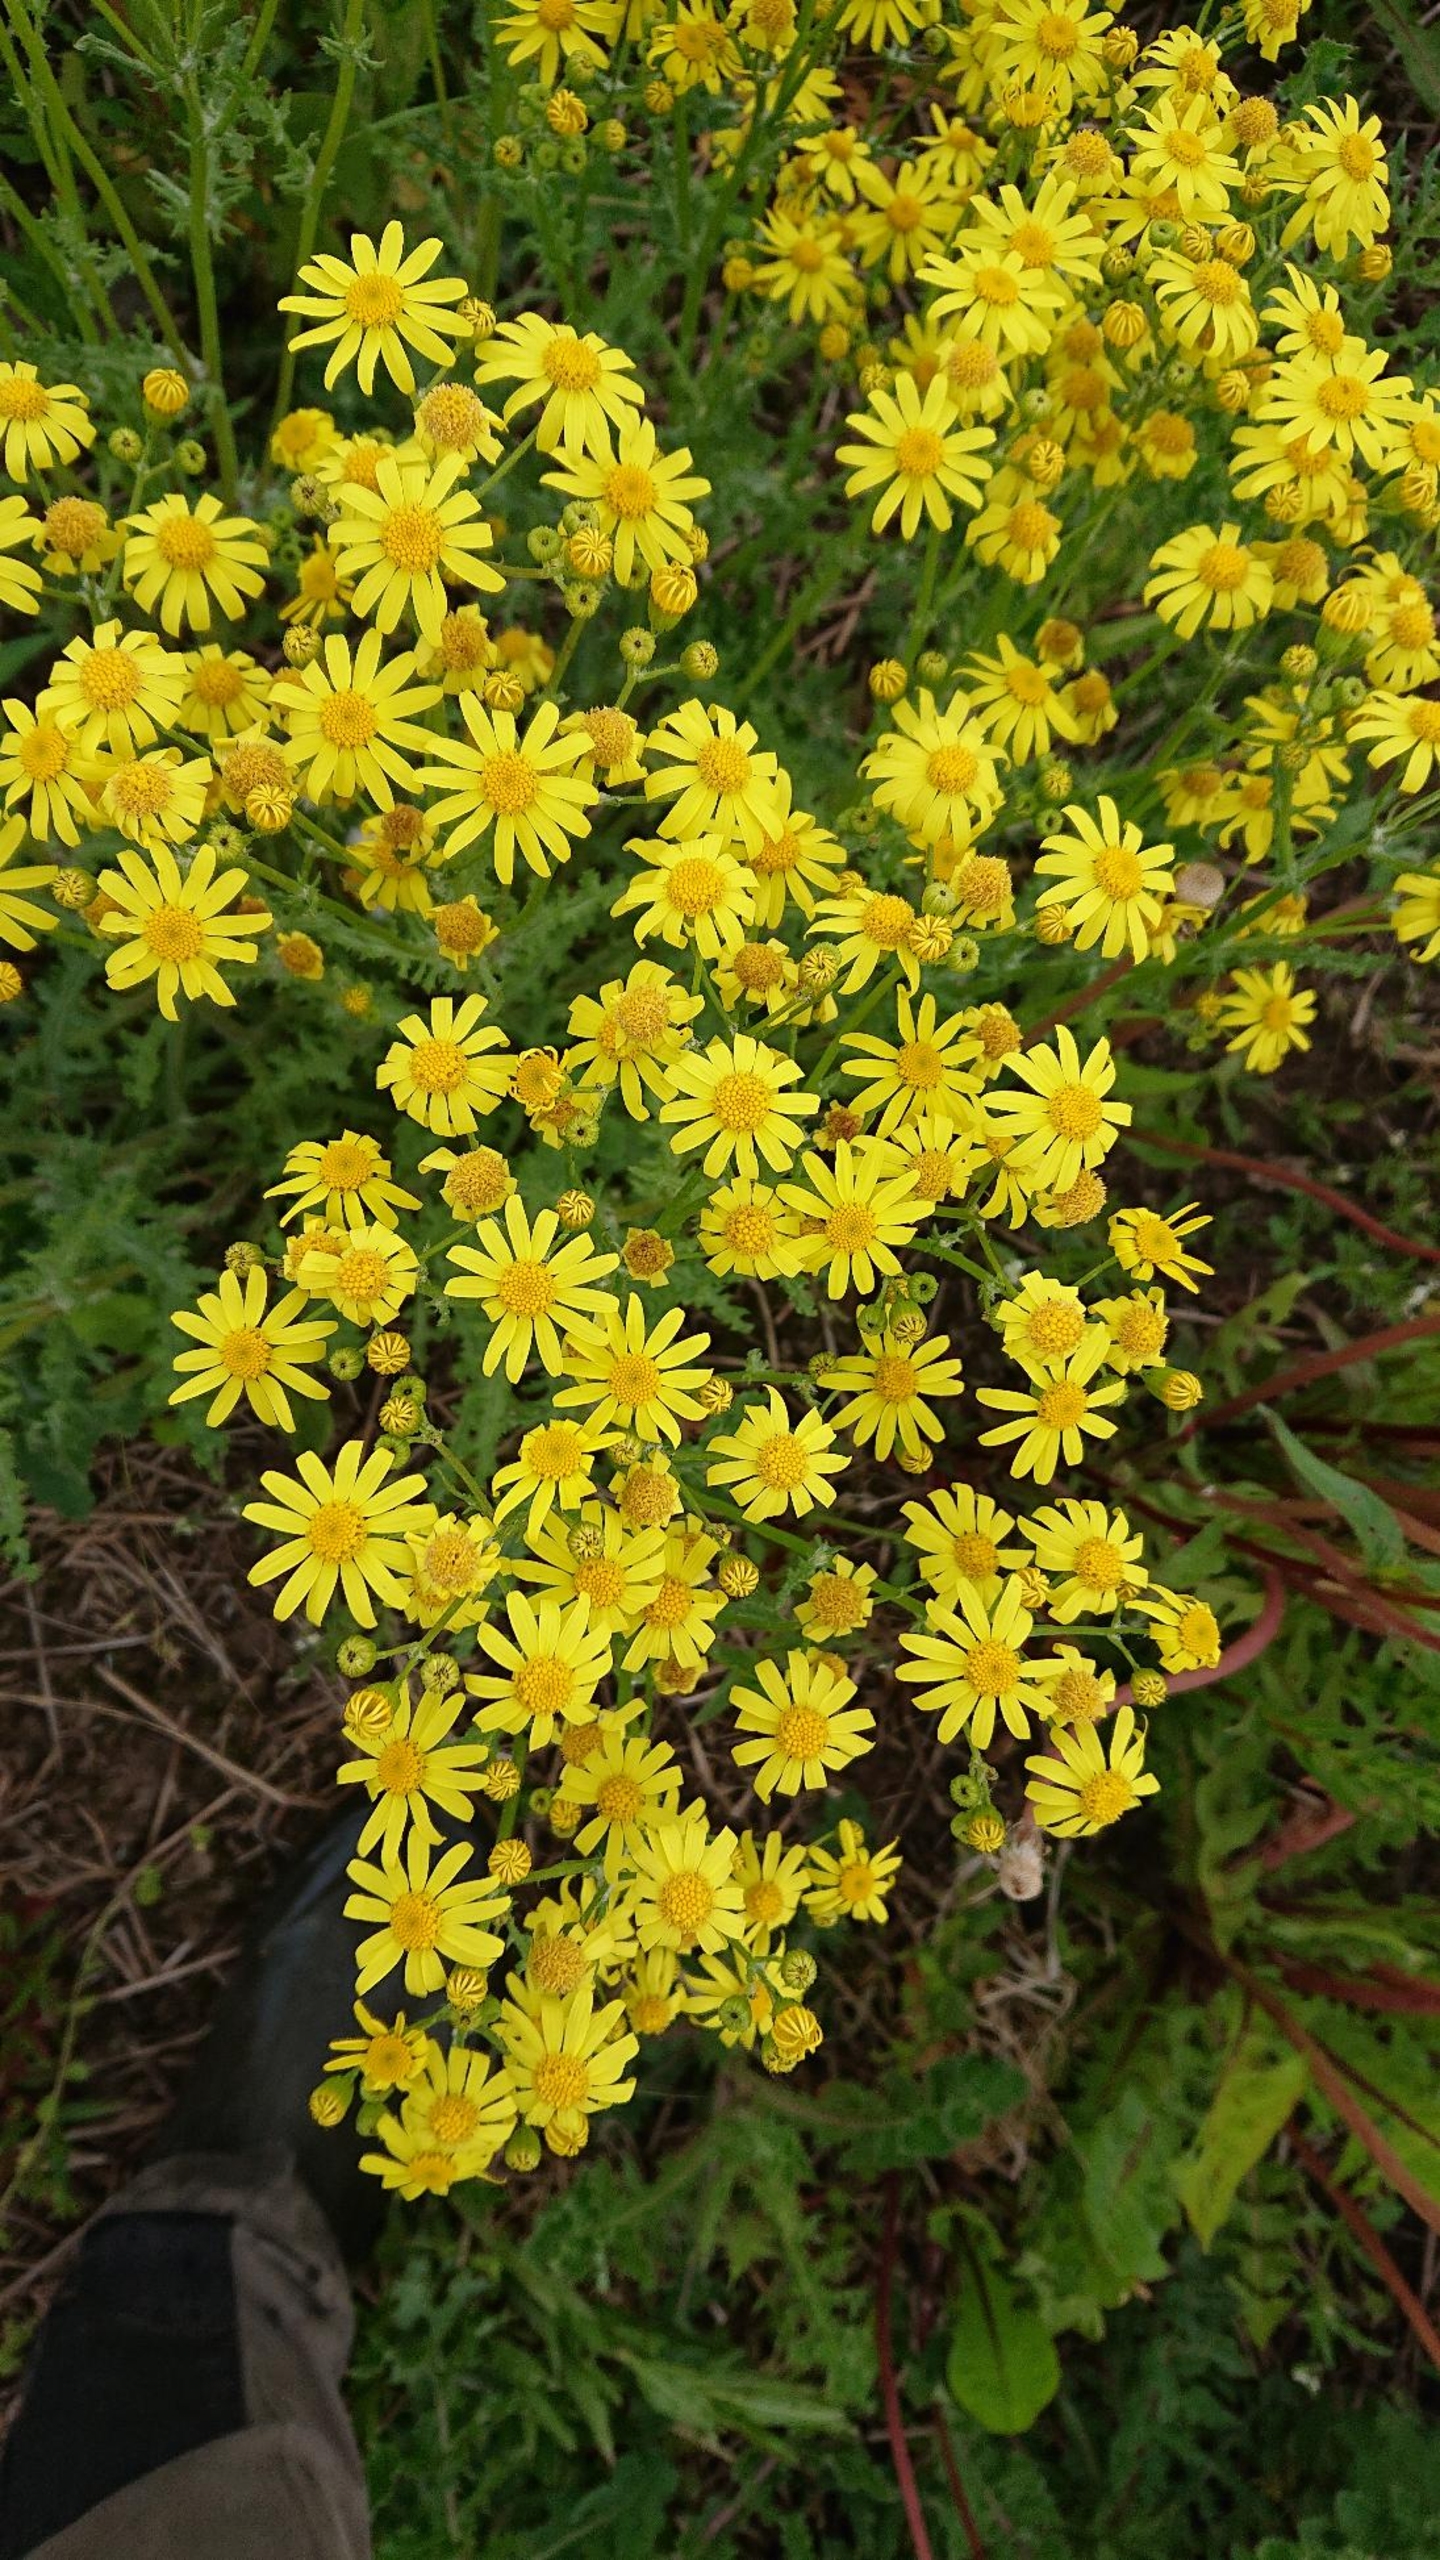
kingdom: Plantae
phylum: Tracheophyta
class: Magnoliopsida
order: Asterales
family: Asteraceae
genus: Senecio
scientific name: Senecio leucanthemifolius
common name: Vår-brandbæger
